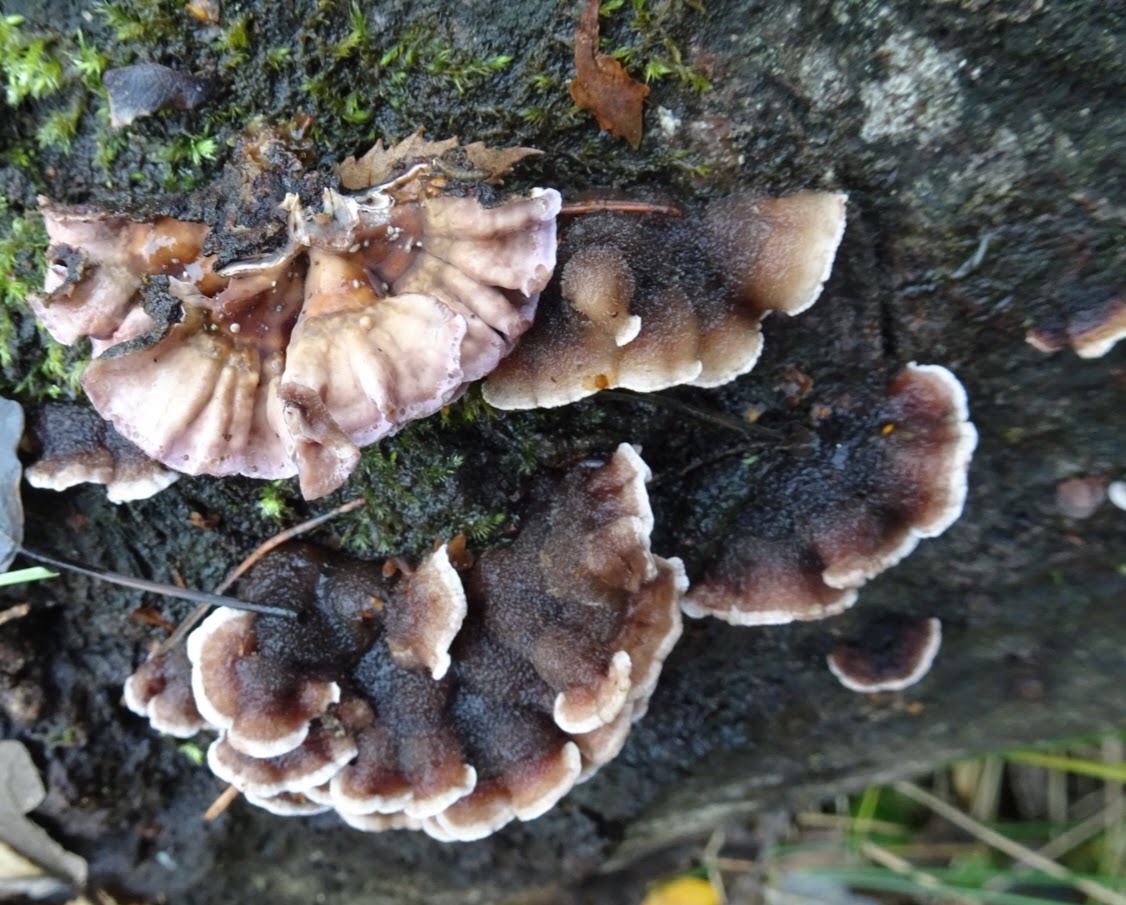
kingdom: Fungi
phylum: Basidiomycota
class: Agaricomycetes
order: Agaricales
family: Cyphellaceae
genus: Chondrostereum
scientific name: Chondrostereum purpureum
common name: purpurlædersvamp
